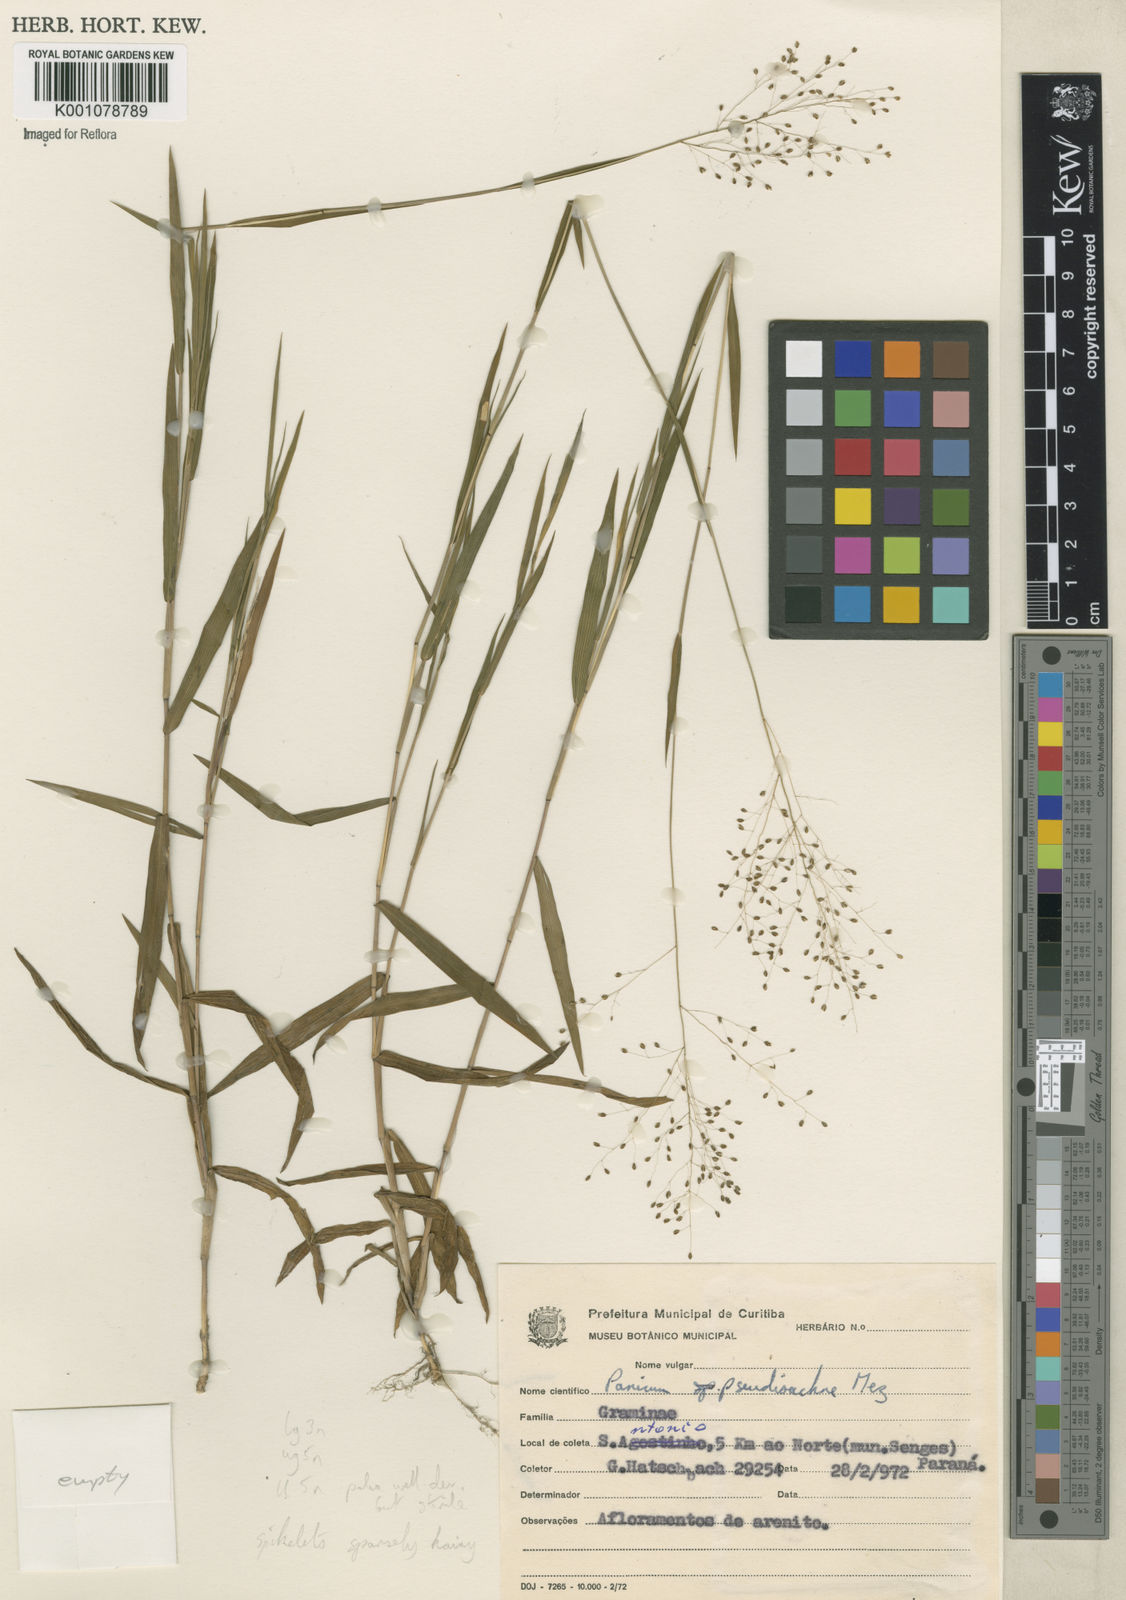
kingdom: Plantae
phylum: Tracheophyta
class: Liliopsida
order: Poales
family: Poaceae
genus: Trichanthecium
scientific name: Trichanthecium pseudisachne
